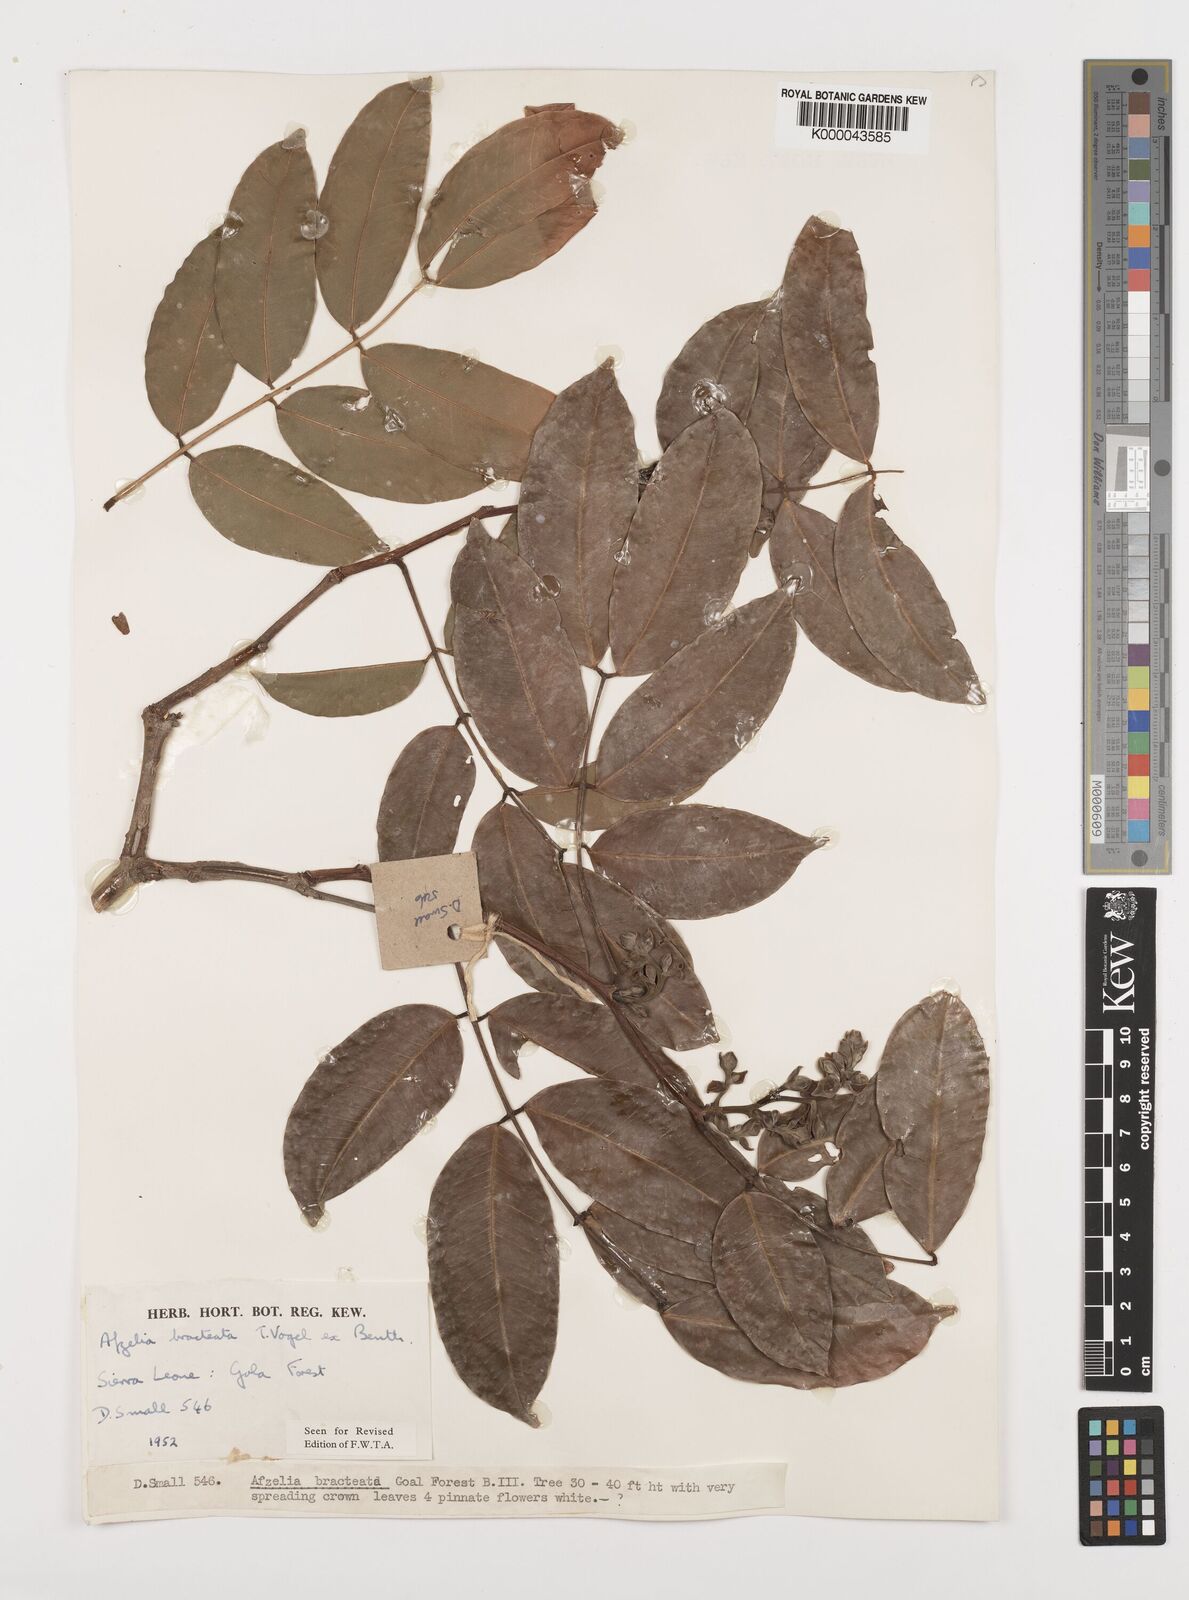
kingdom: Plantae
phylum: Tracheophyta
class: Magnoliopsida
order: Fabales
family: Fabaceae
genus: Afzelia
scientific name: Afzelia
